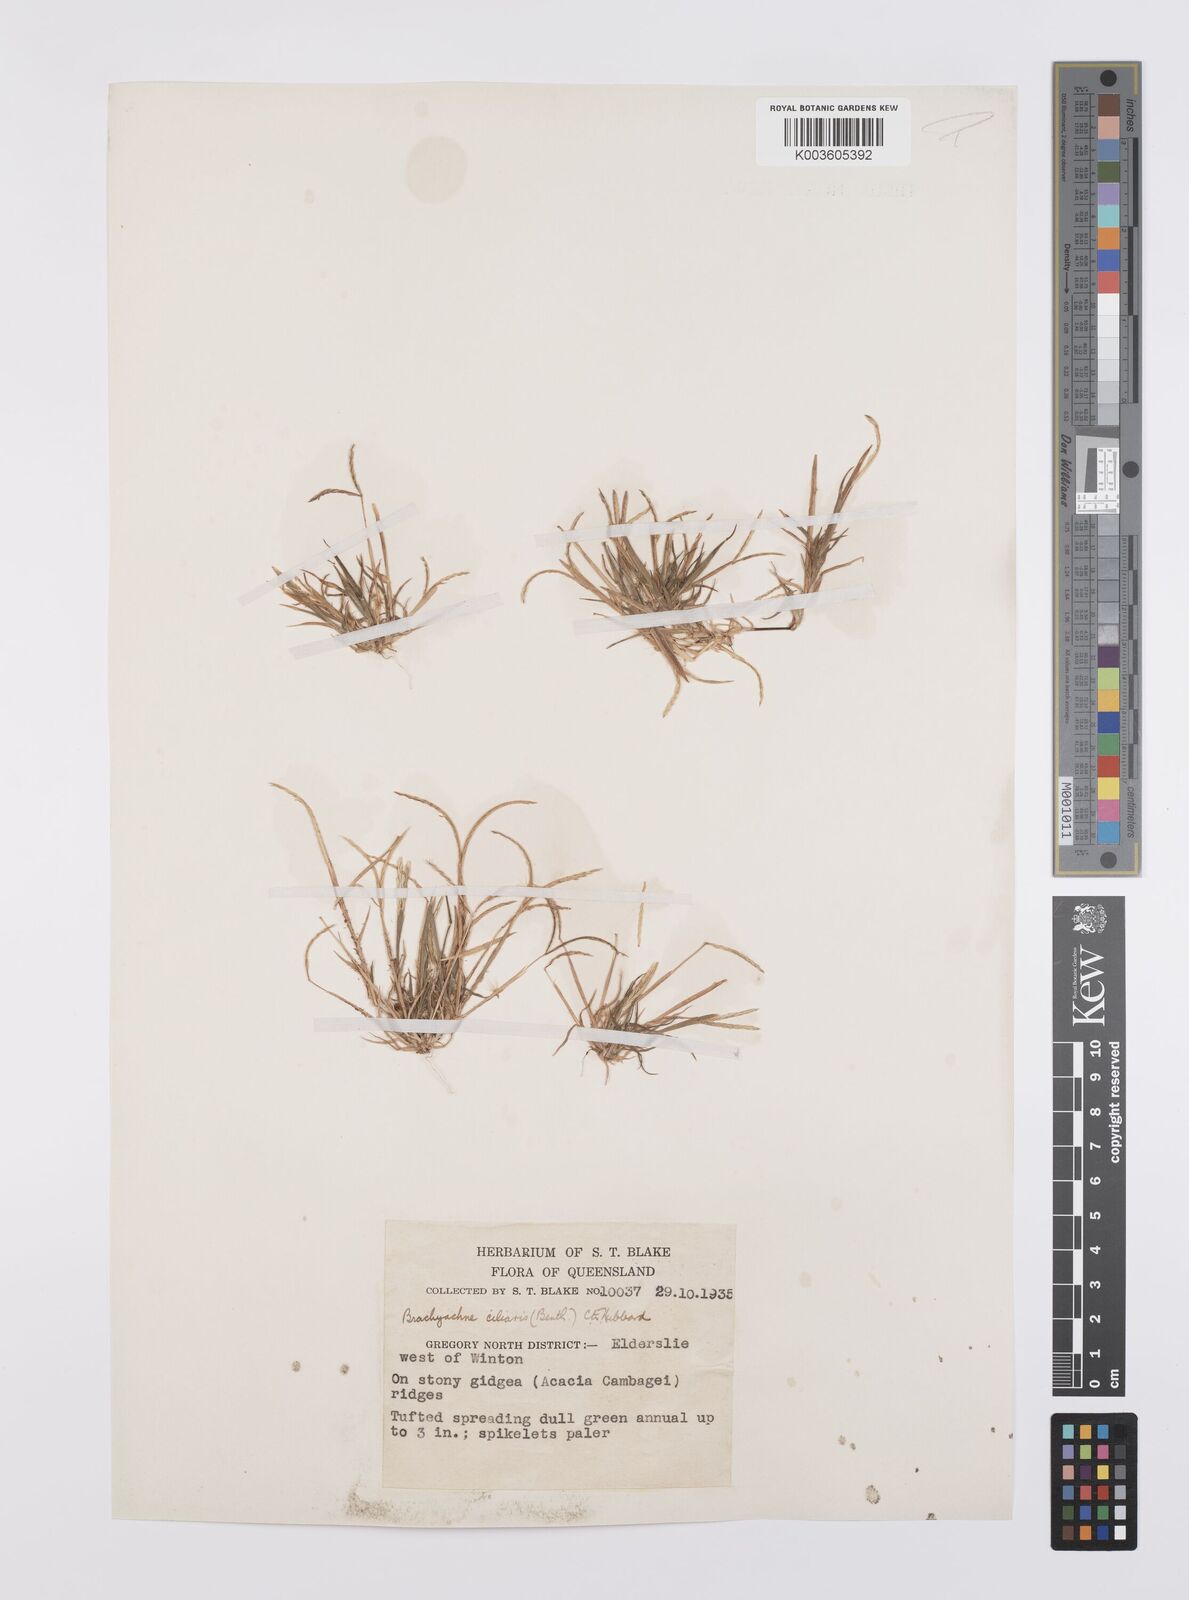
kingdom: Plantae
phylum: Tracheophyta
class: Liliopsida
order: Poales
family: Poaceae
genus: Cynodon
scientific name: Cynodon simonii
